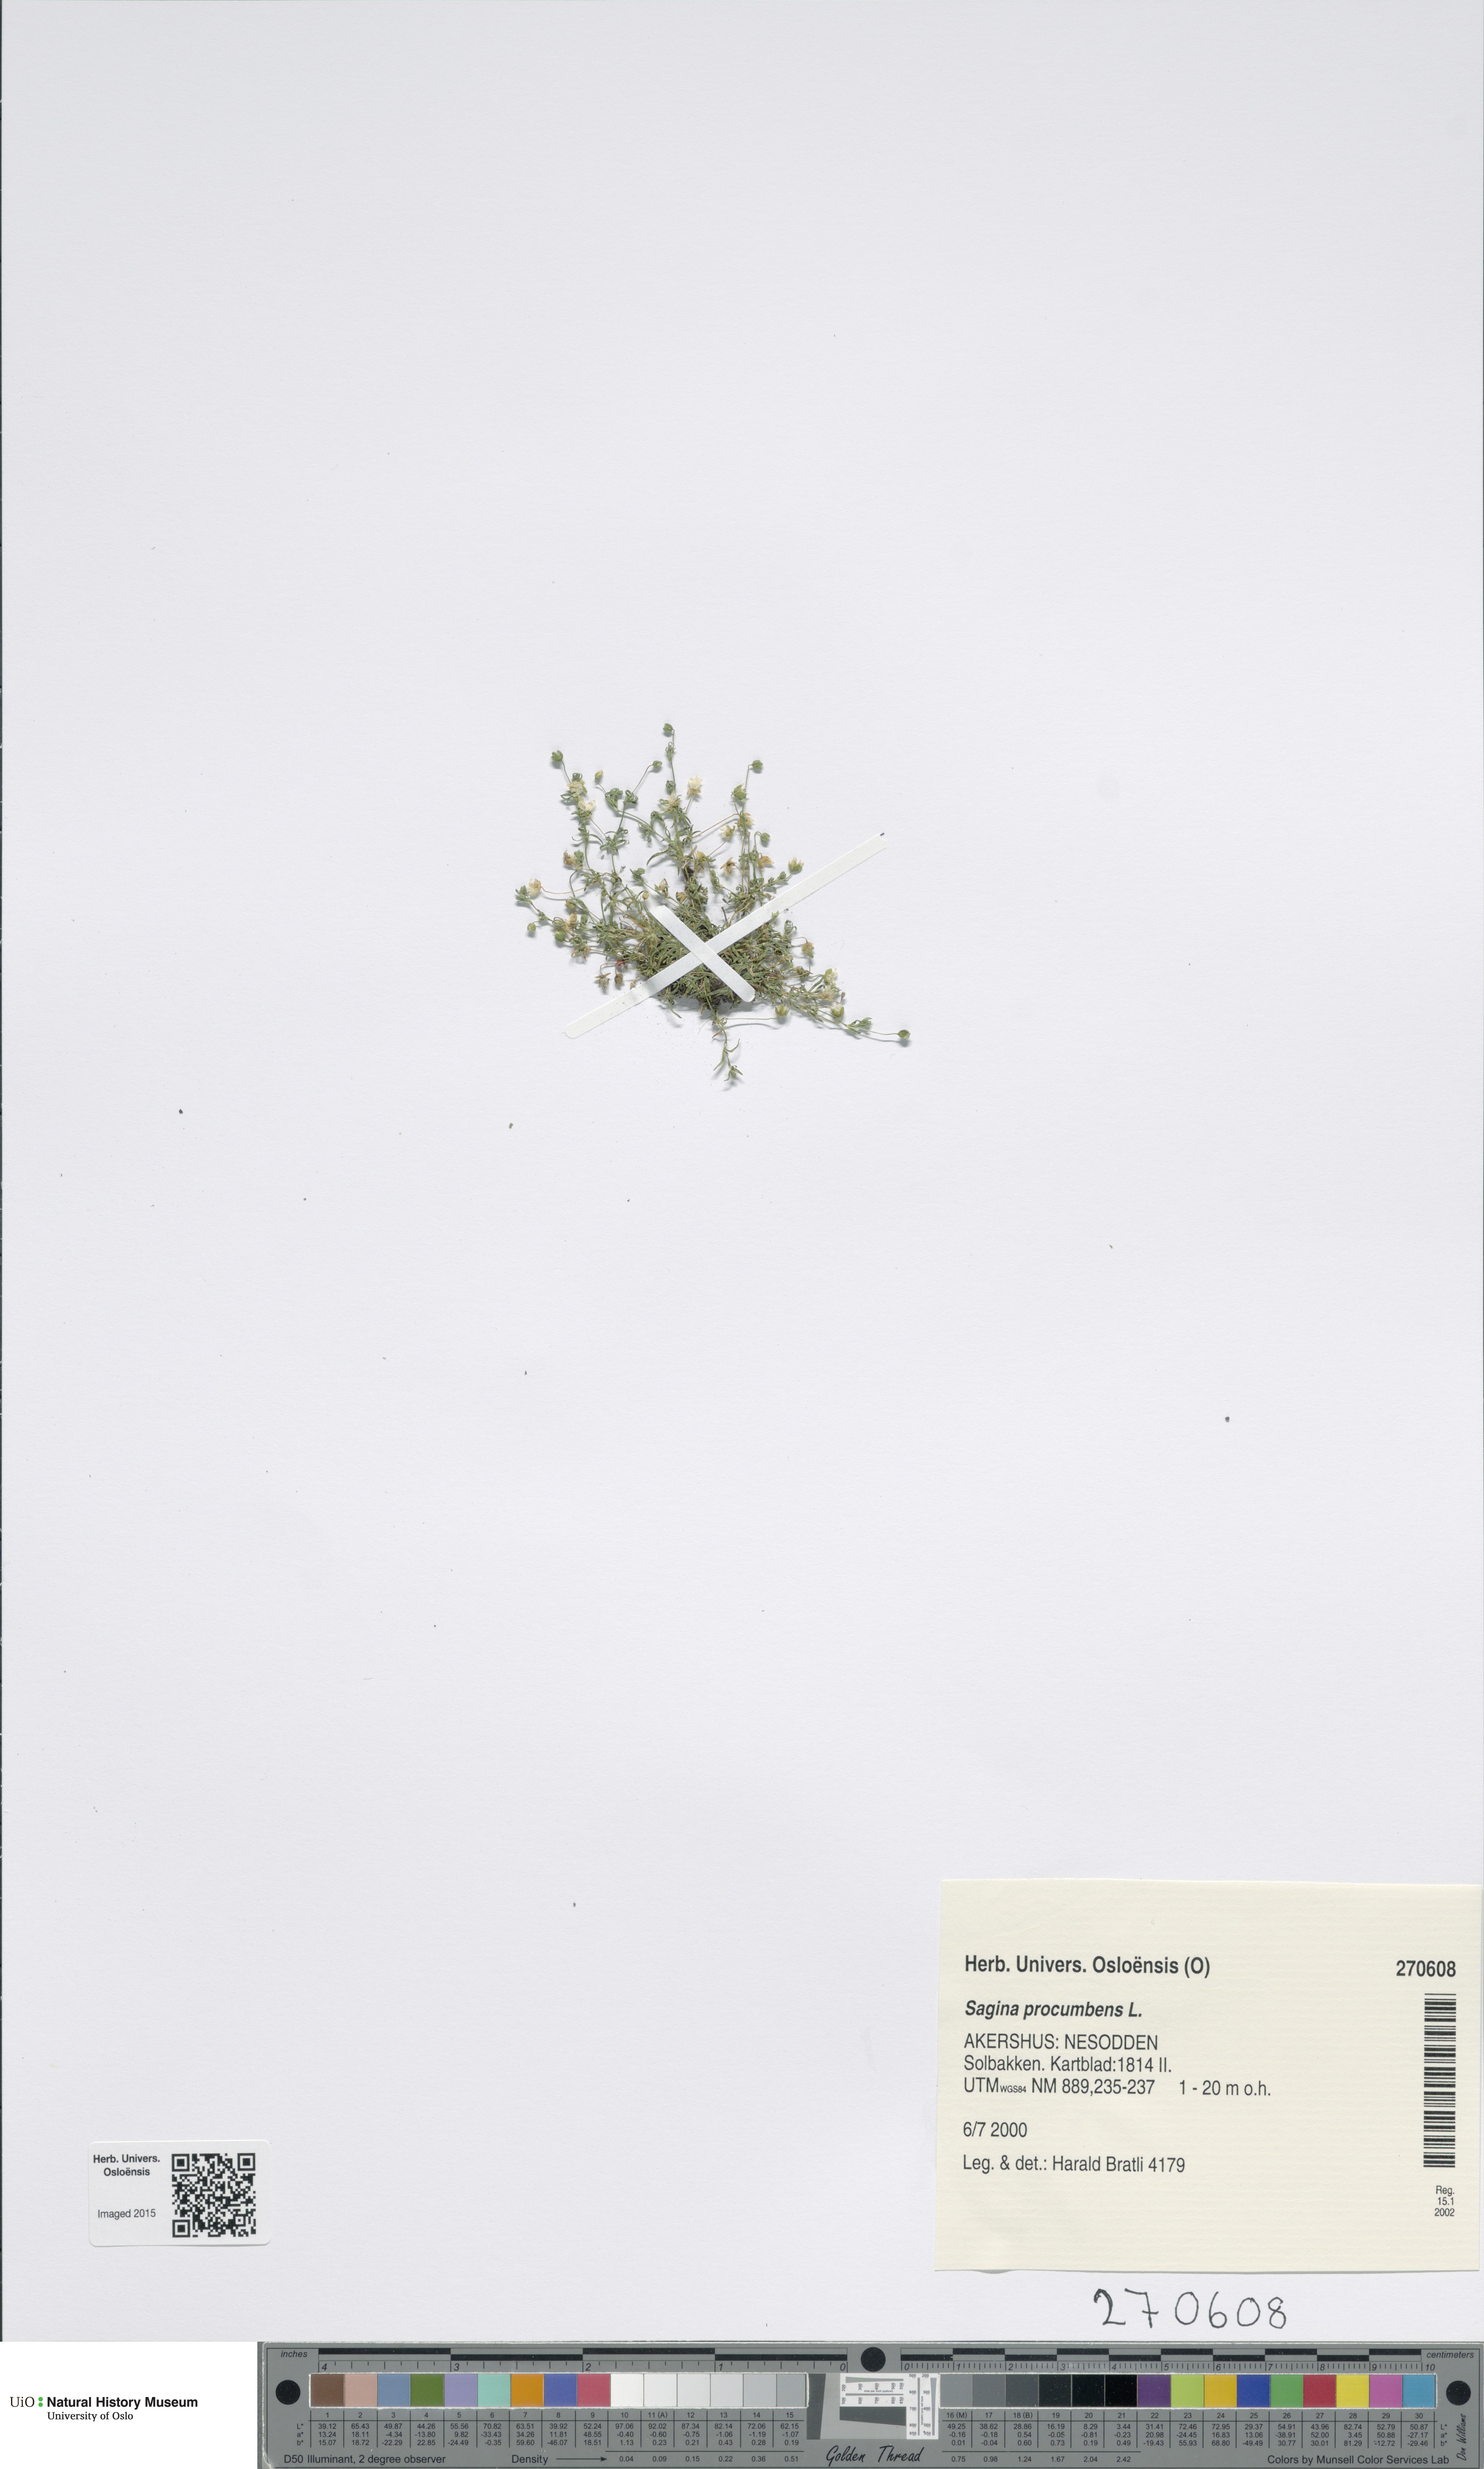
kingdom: Plantae
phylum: Tracheophyta
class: Magnoliopsida
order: Caryophyllales
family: Caryophyllaceae
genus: Sagina
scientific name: Sagina procumbens
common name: Procumbent pearlwort
